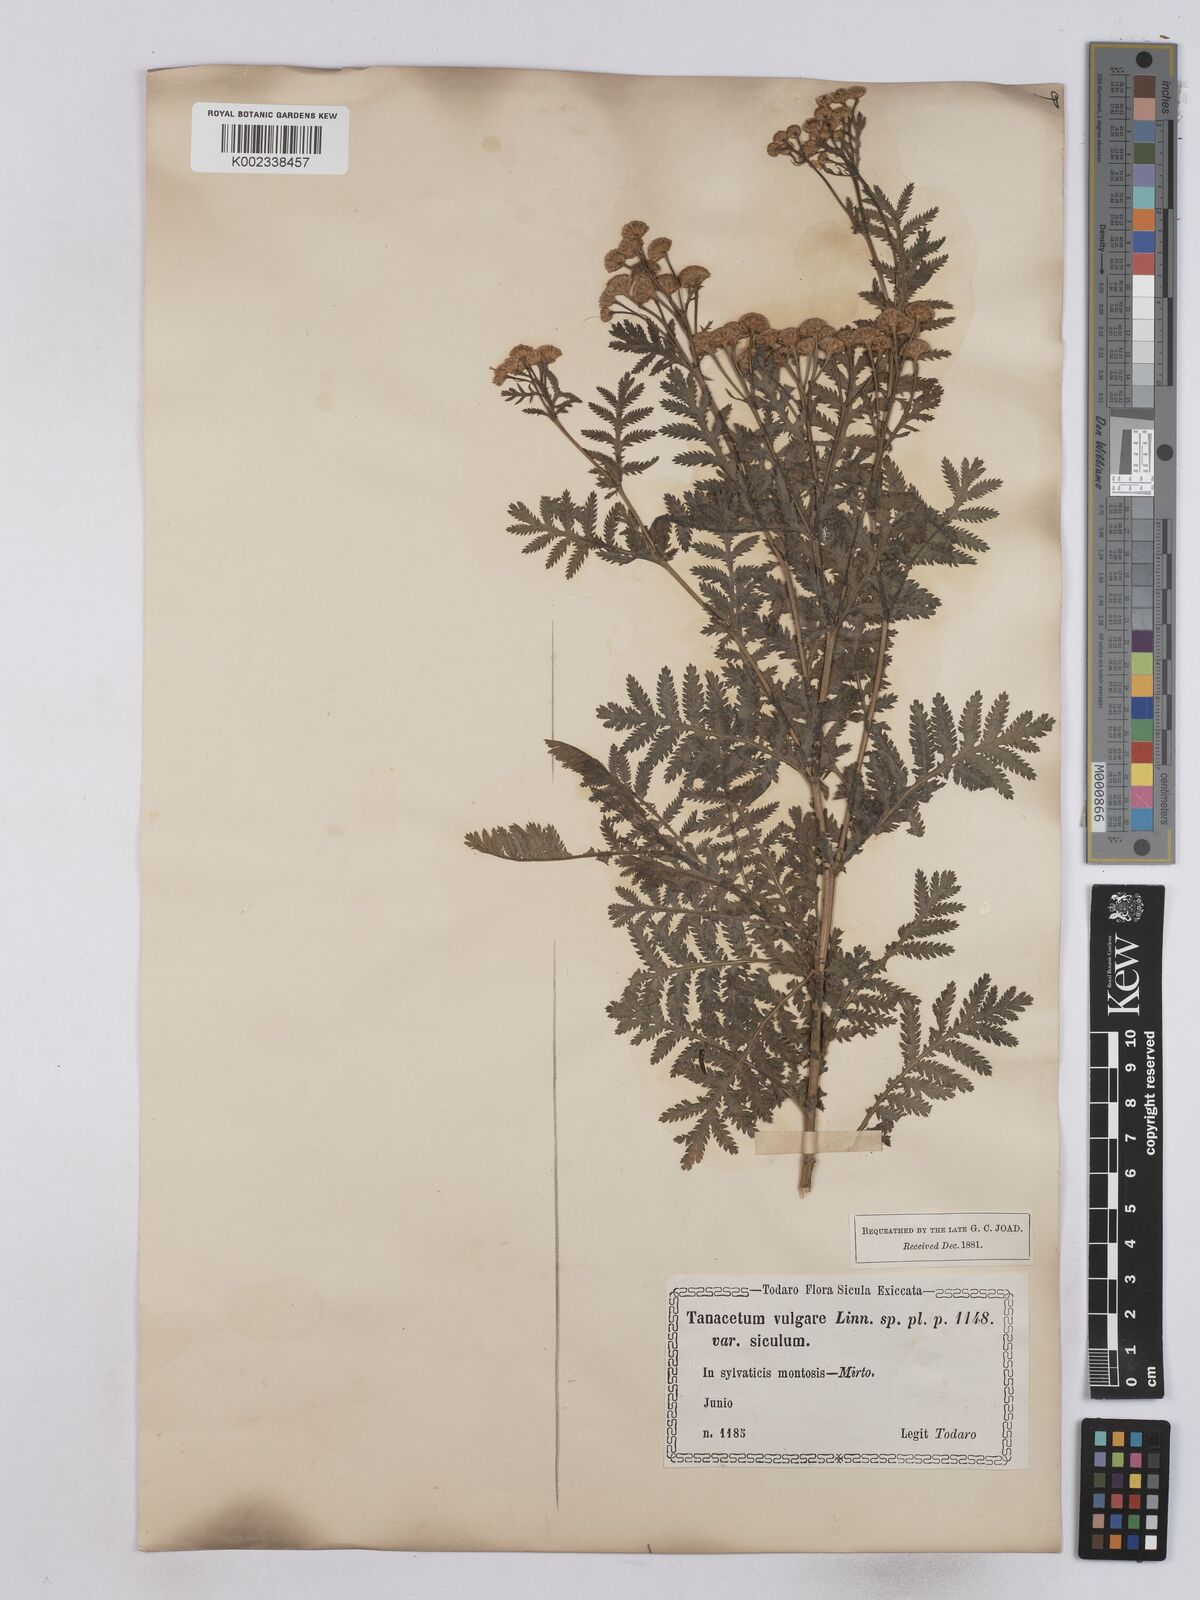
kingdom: Plantae
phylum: Tracheophyta
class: Magnoliopsida
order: Asterales
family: Asteraceae
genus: Tanacetum
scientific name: Tanacetum vulgare
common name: Common tansy
